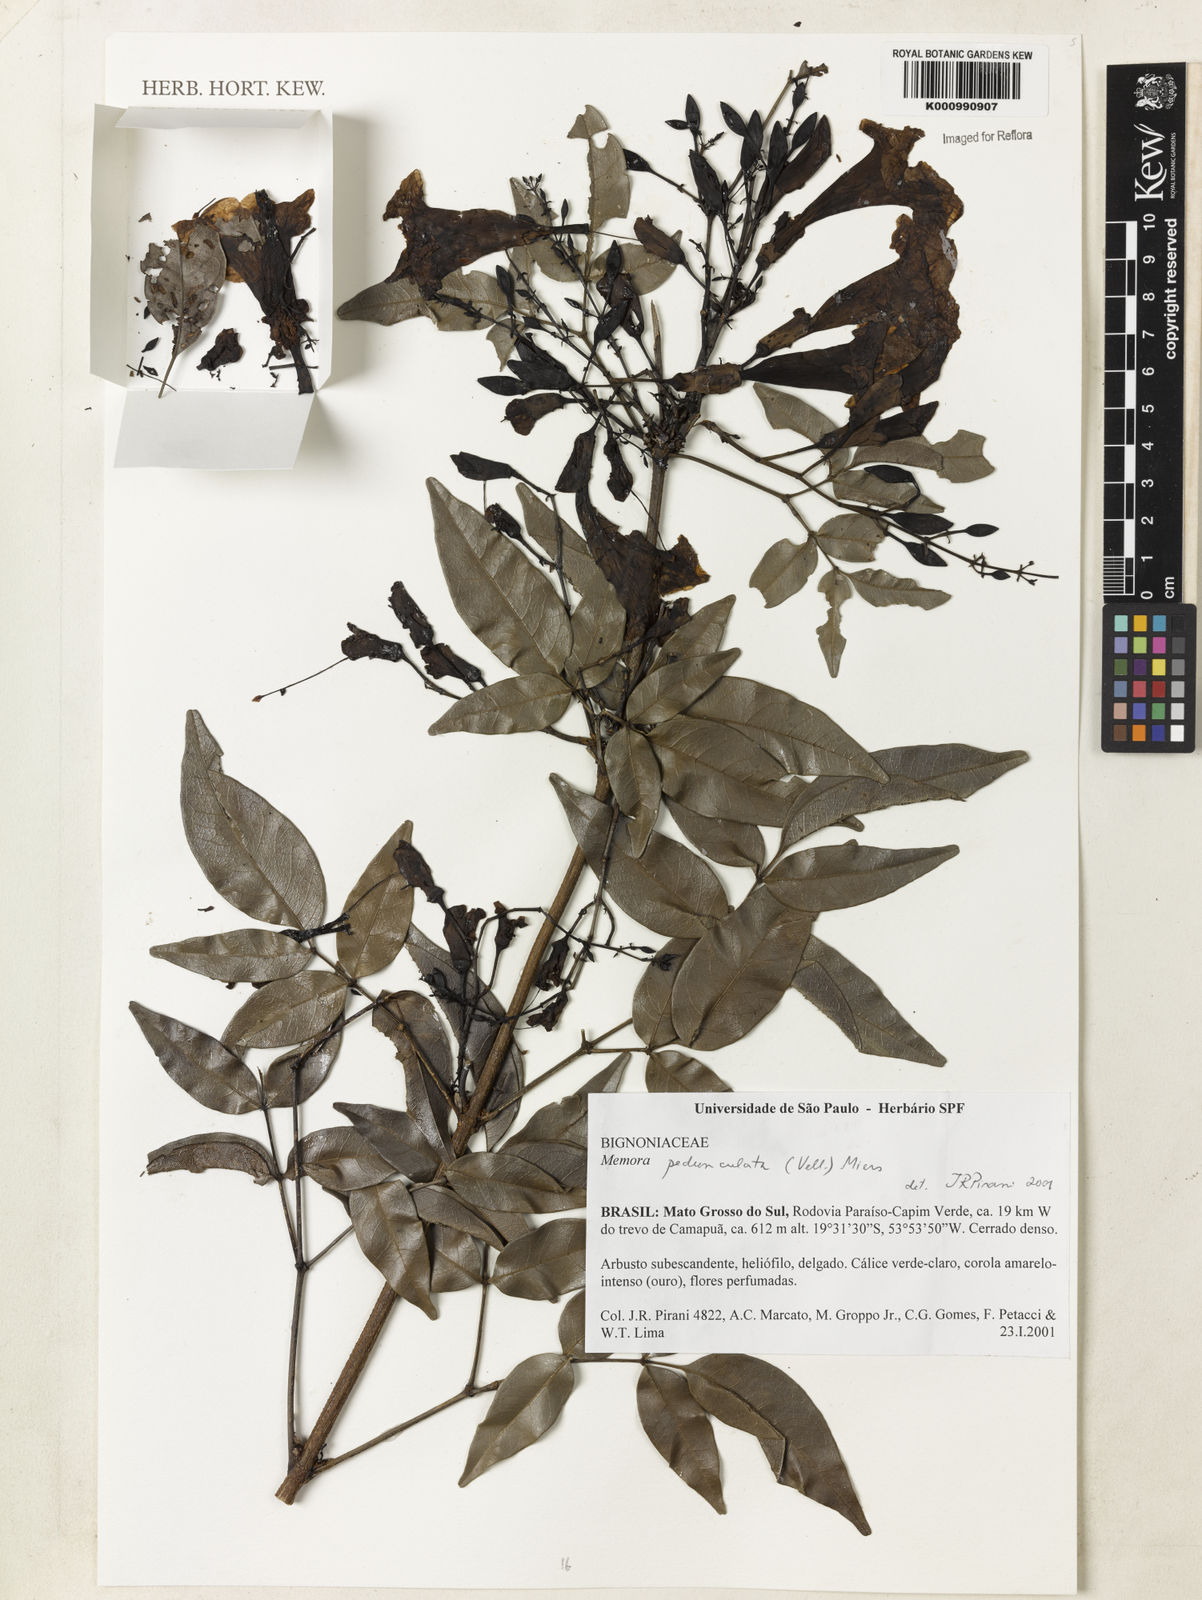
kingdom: Plantae
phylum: Tracheophyta
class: Magnoliopsida
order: Lamiales
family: Bignoniaceae
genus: Adenocalymma
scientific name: Adenocalymma pedunculatum
